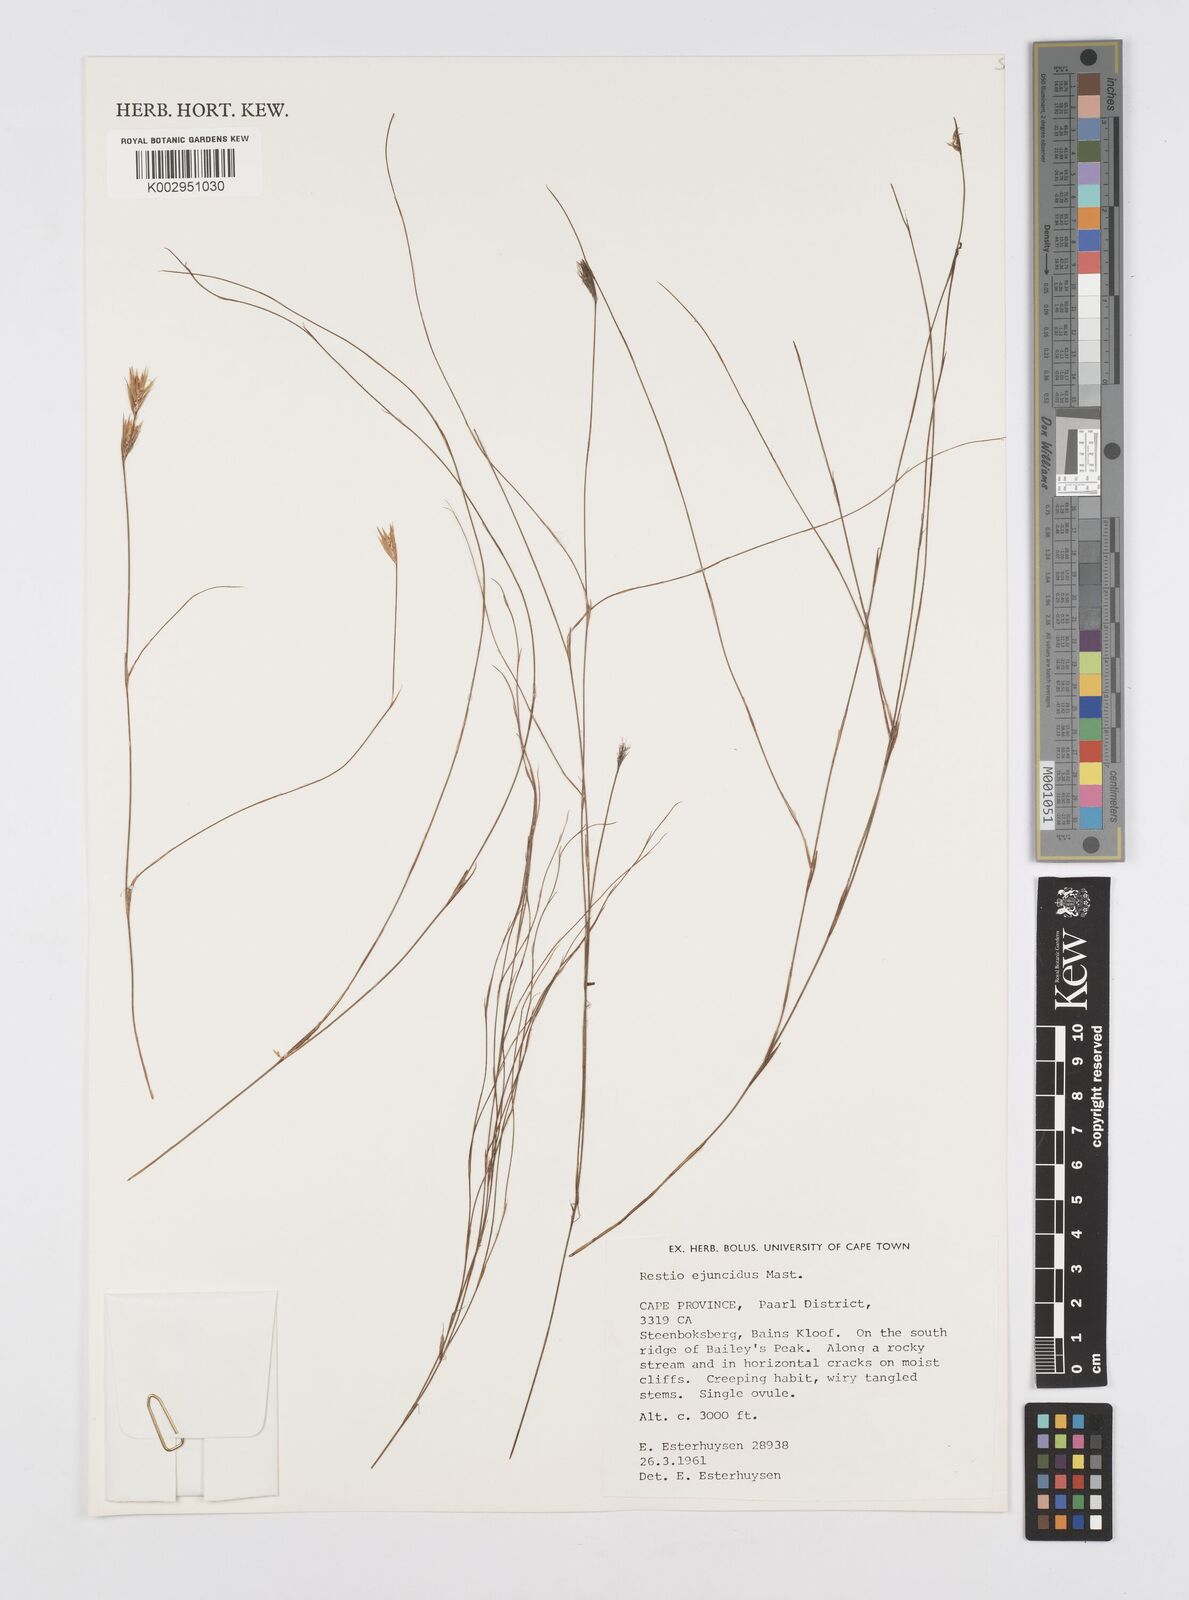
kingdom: Plantae
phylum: Tracheophyta
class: Liliopsida
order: Poales
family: Restionaceae
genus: Restio
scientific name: Restio ejuncidus
